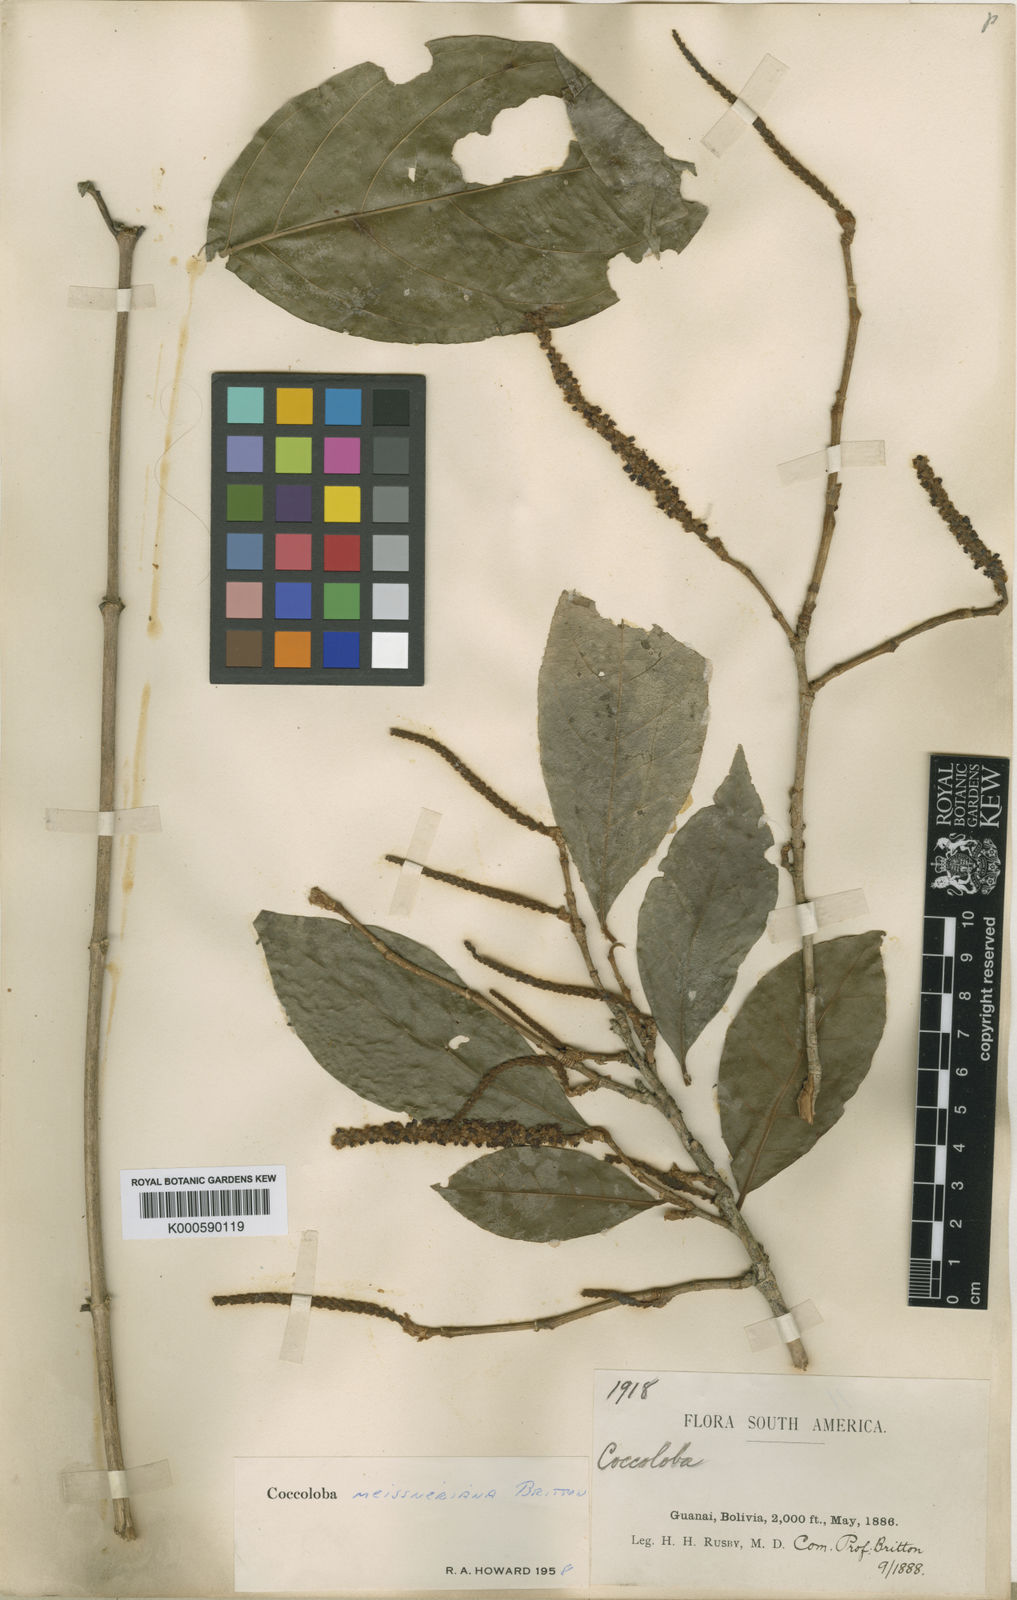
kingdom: Plantae
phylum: Tracheophyta
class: Magnoliopsida
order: Caryophyllales
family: Polygonaceae
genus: Coccoloba
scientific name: Coccoloba meissneriana
